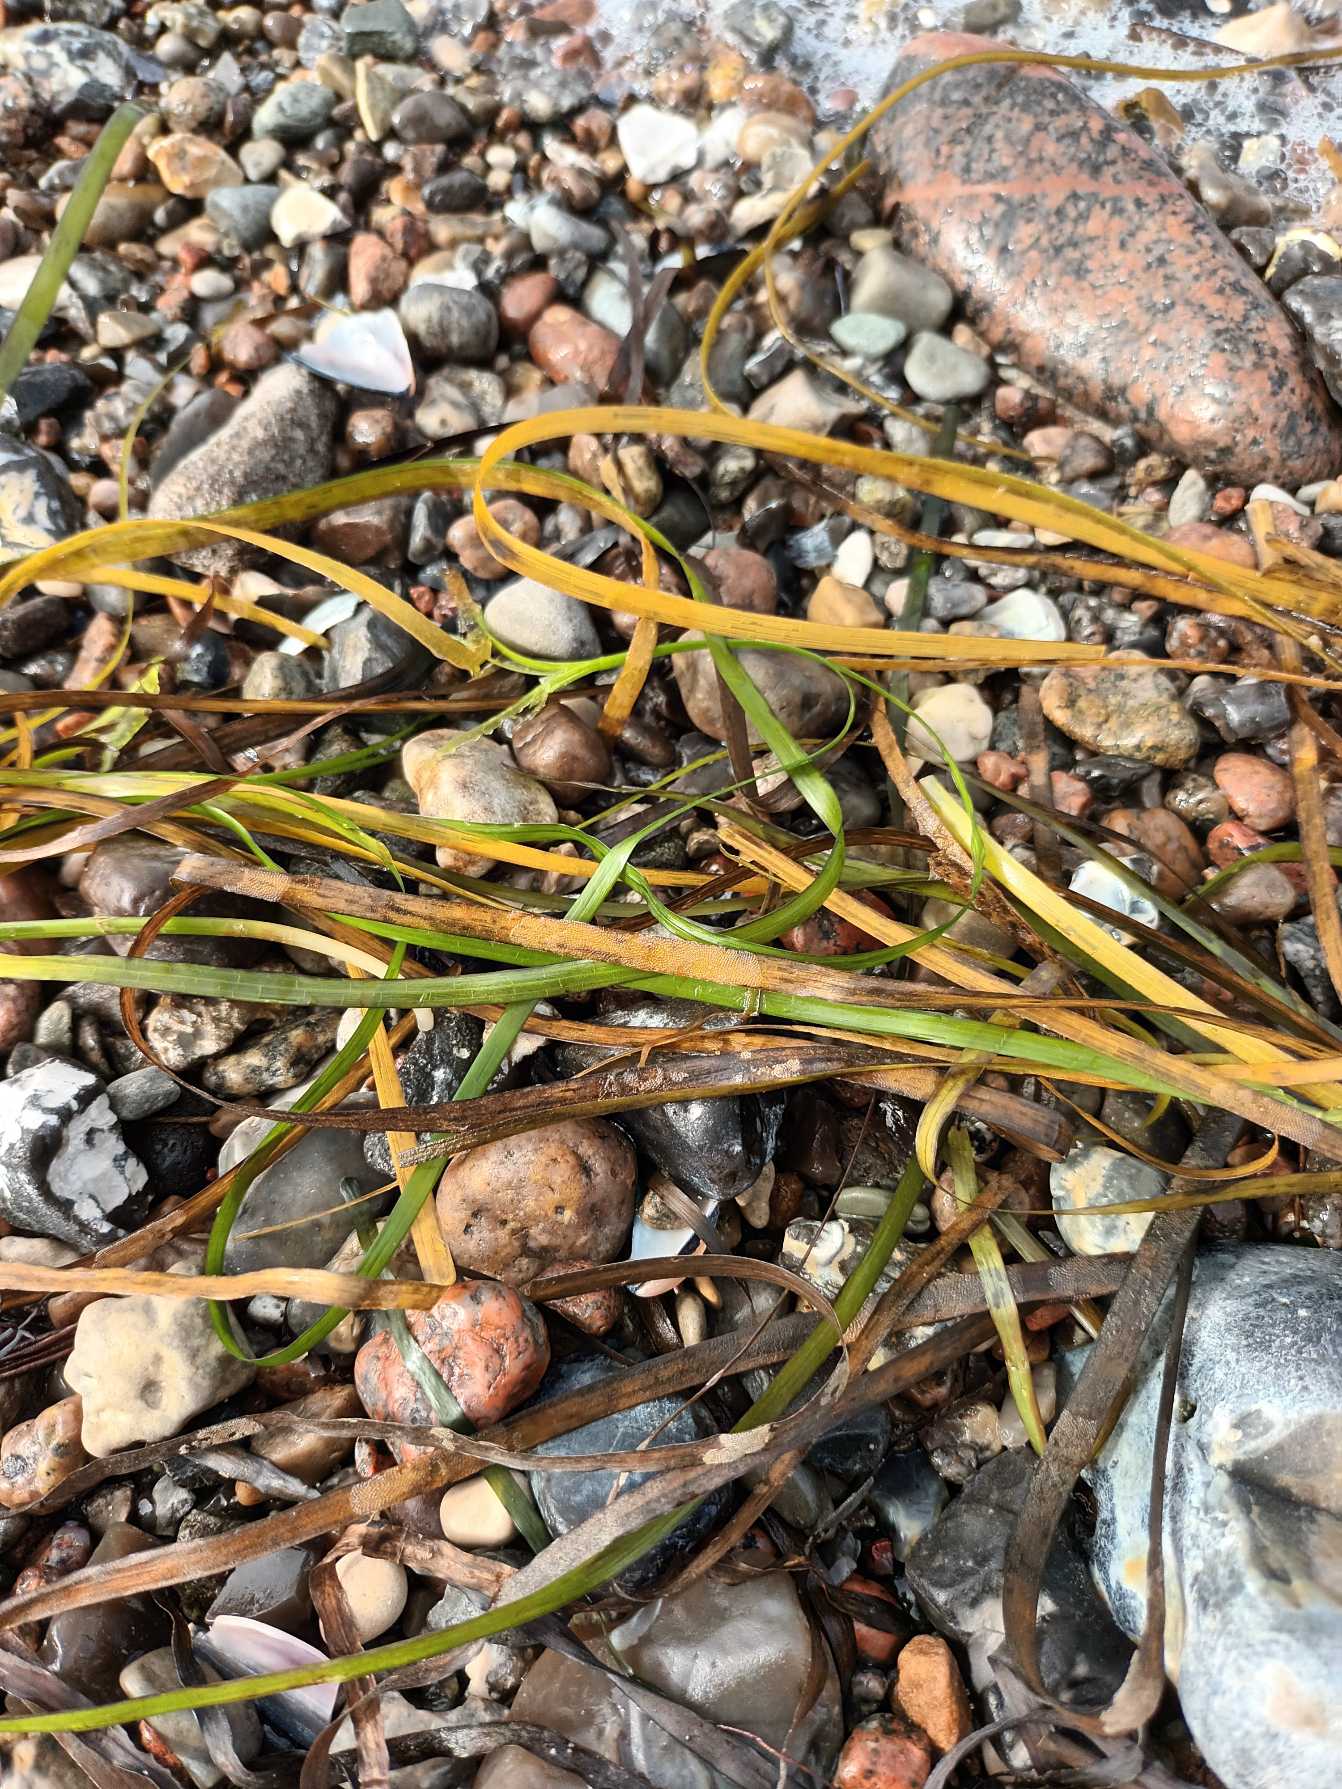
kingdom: Plantae
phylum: Tracheophyta
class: Liliopsida
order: Alismatales
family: Zosteraceae
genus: Zostera
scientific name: Zostera marina
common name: Almindelig bændeltang
